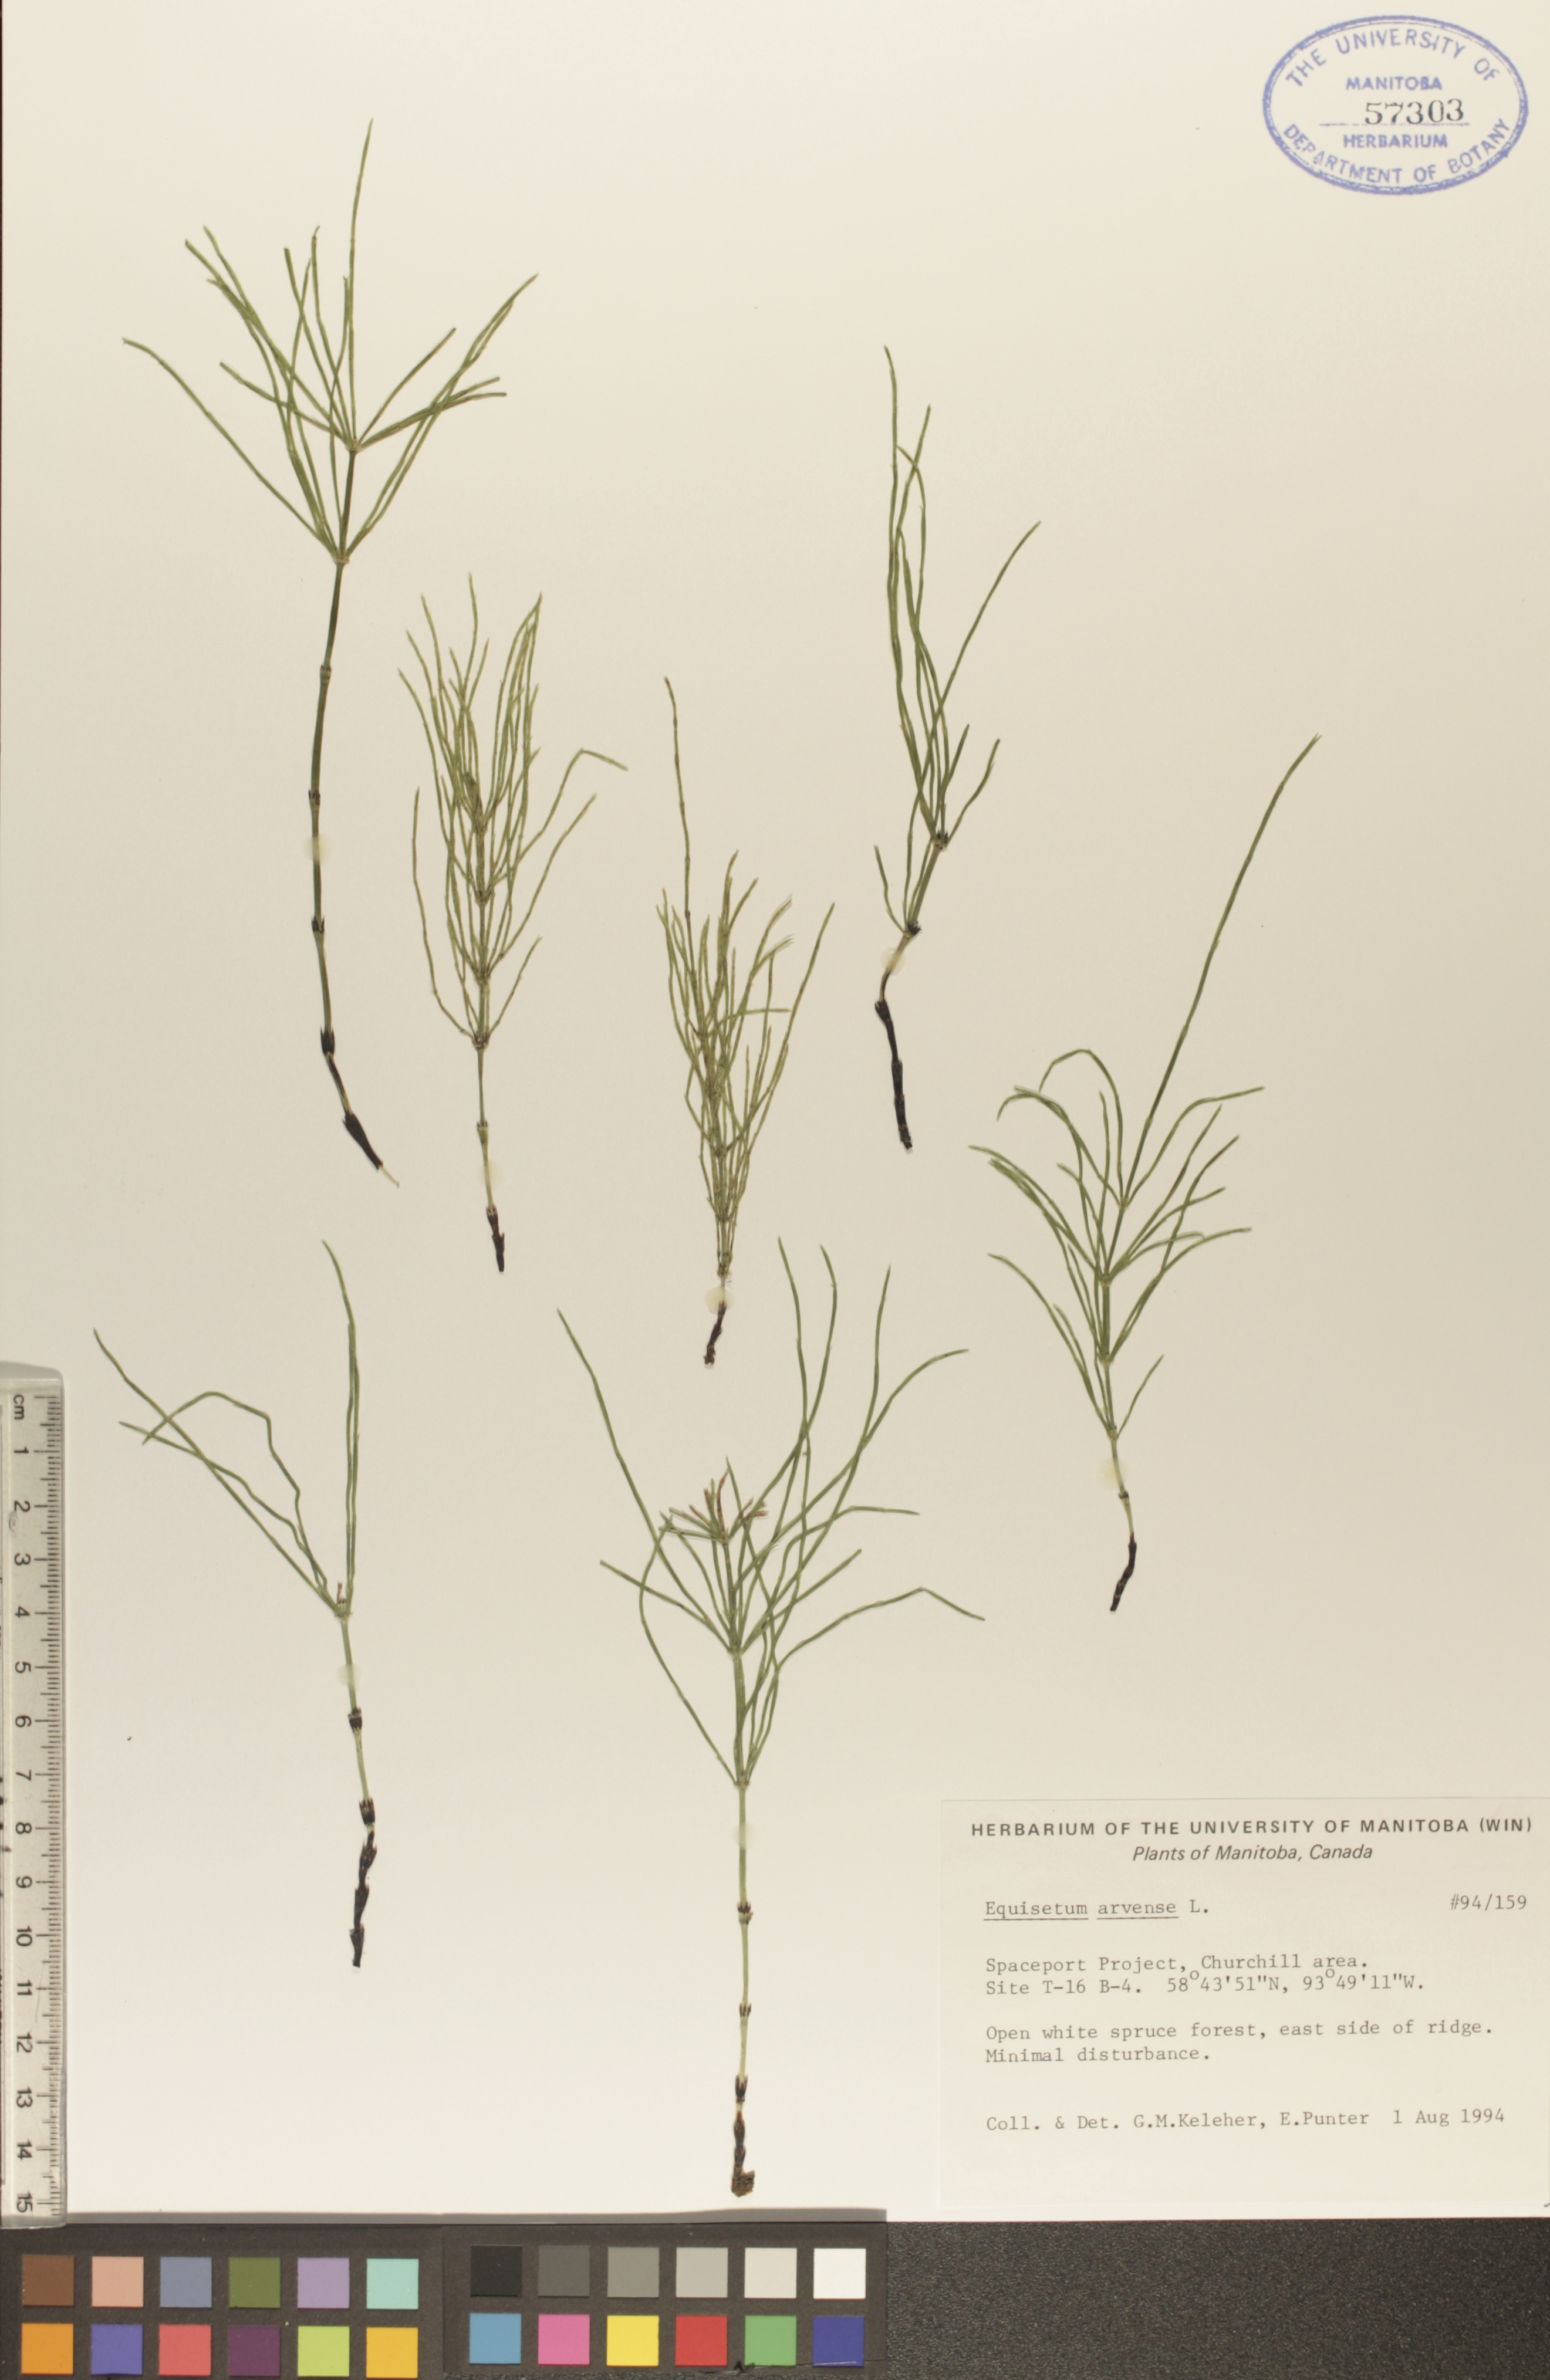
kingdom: Plantae
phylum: Tracheophyta
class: Polypodiopsida
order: Equisetales
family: Equisetaceae
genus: Equisetum
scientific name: Equisetum arvense
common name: Field horsetail
